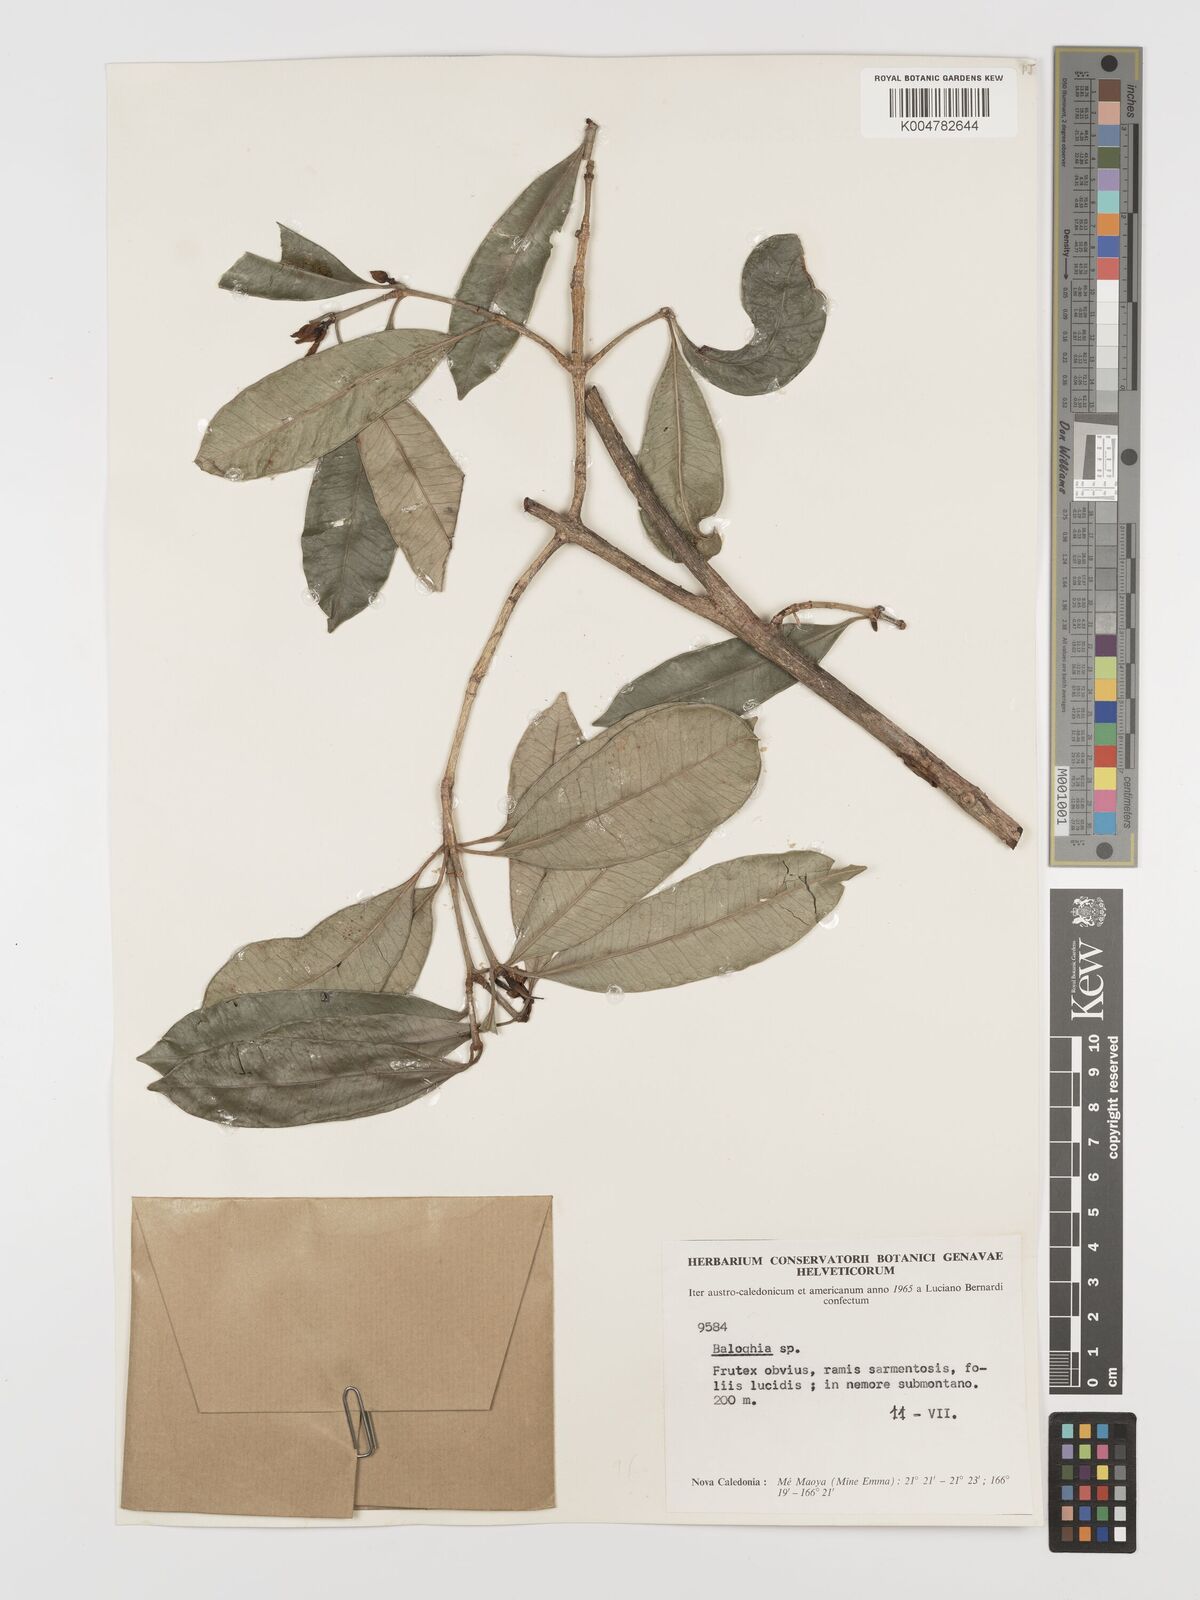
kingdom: Plantae
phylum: Tracheophyta
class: Magnoliopsida
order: Malpighiales
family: Euphorbiaceae
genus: Baloghia
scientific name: Baloghia inophylla
